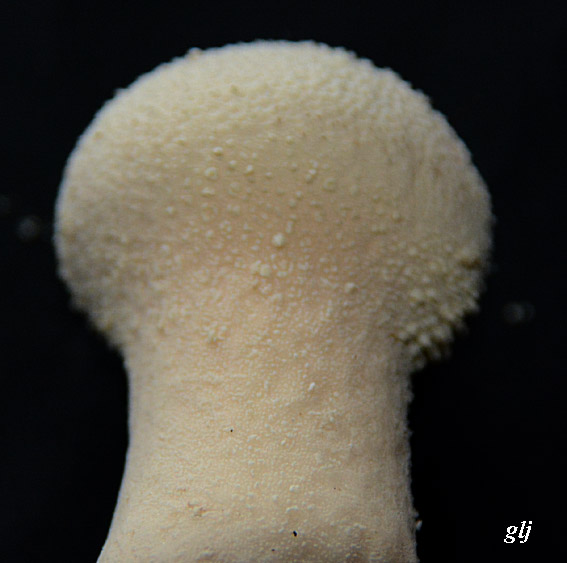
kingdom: Fungi
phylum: Basidiomycota
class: Agaricomycetes
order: Agaricales
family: Lycoperdaceae
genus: Lycoperdon
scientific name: Lycoperdon perlatum
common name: krystal-støvbold
